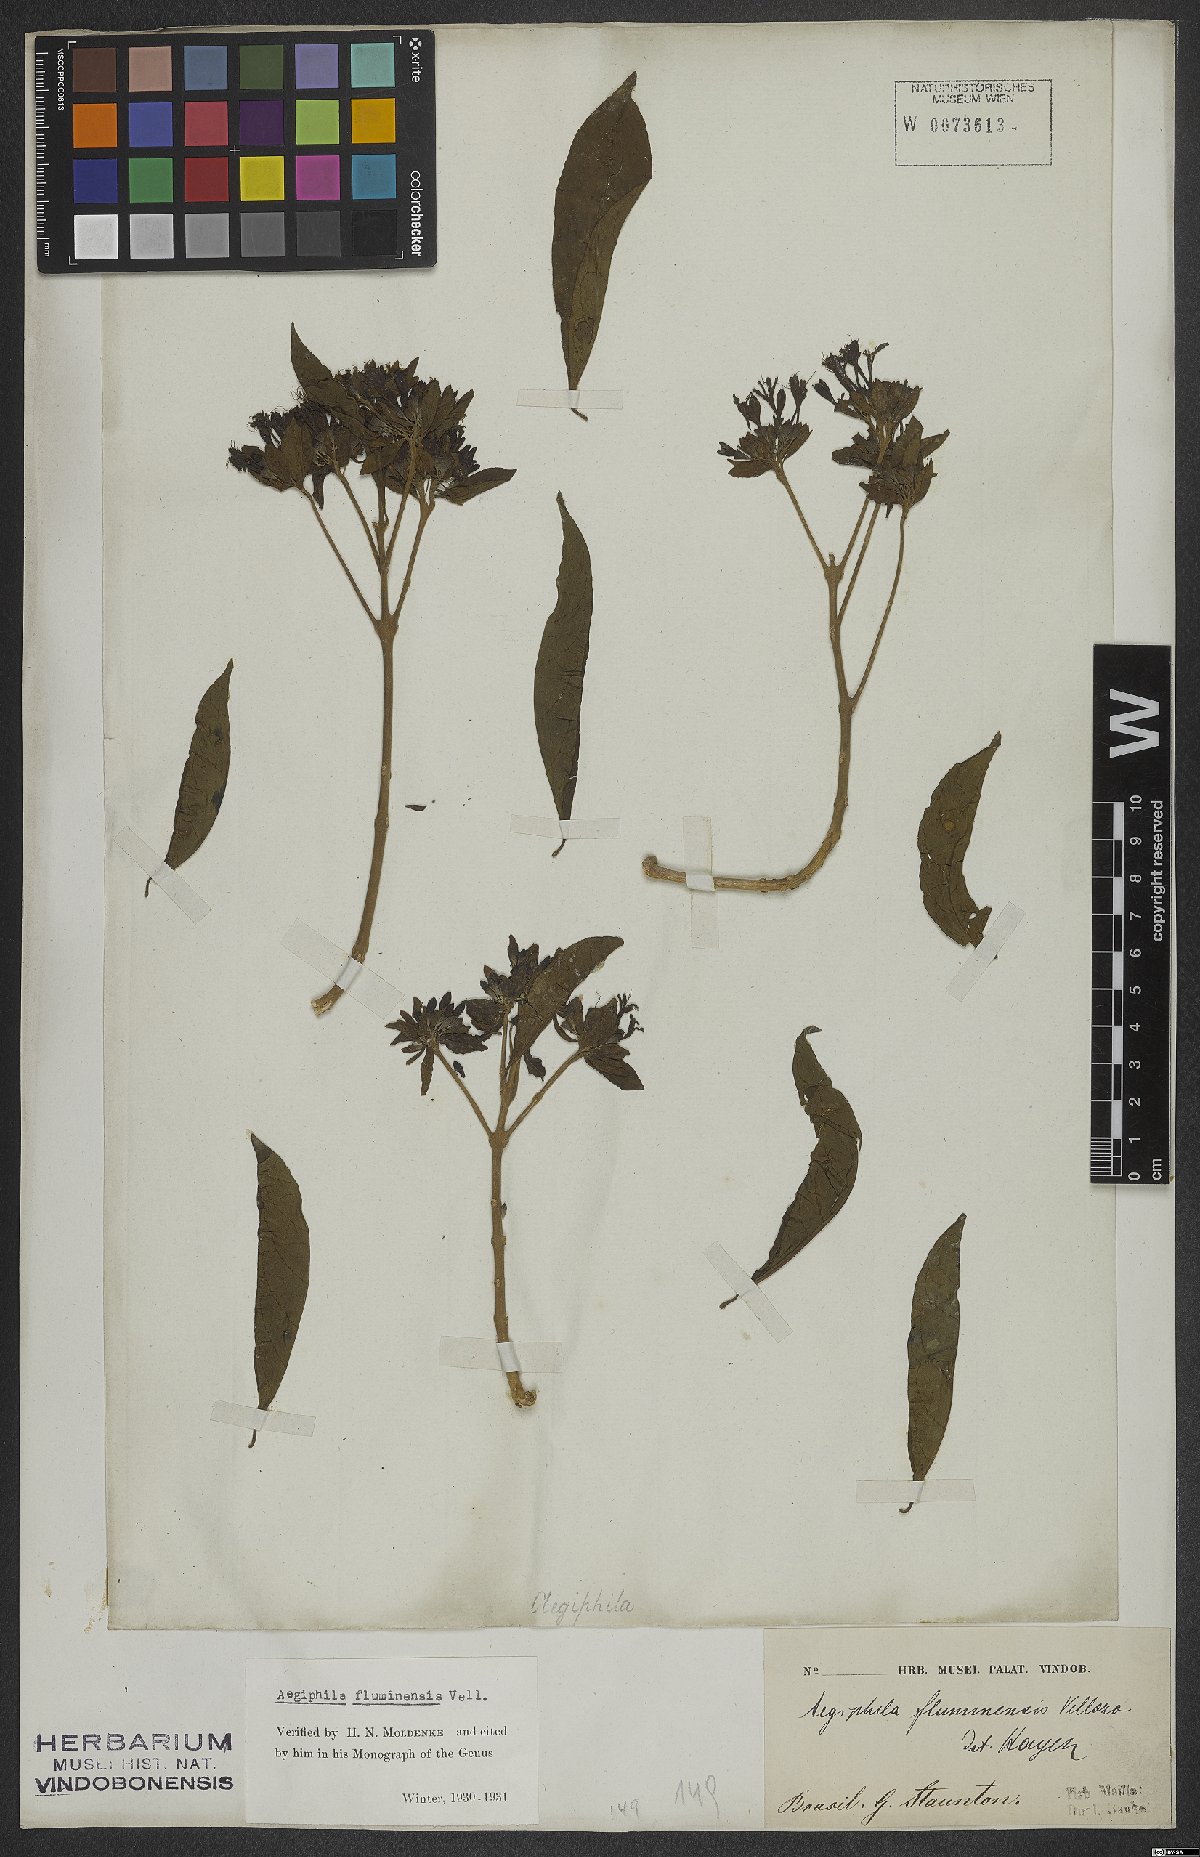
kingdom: Plantae
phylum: Tracheophyta
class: Magnoliopsida
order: Lamiales
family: Lamiaceae
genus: Aegiphila
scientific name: Aegiphila fluminensis
